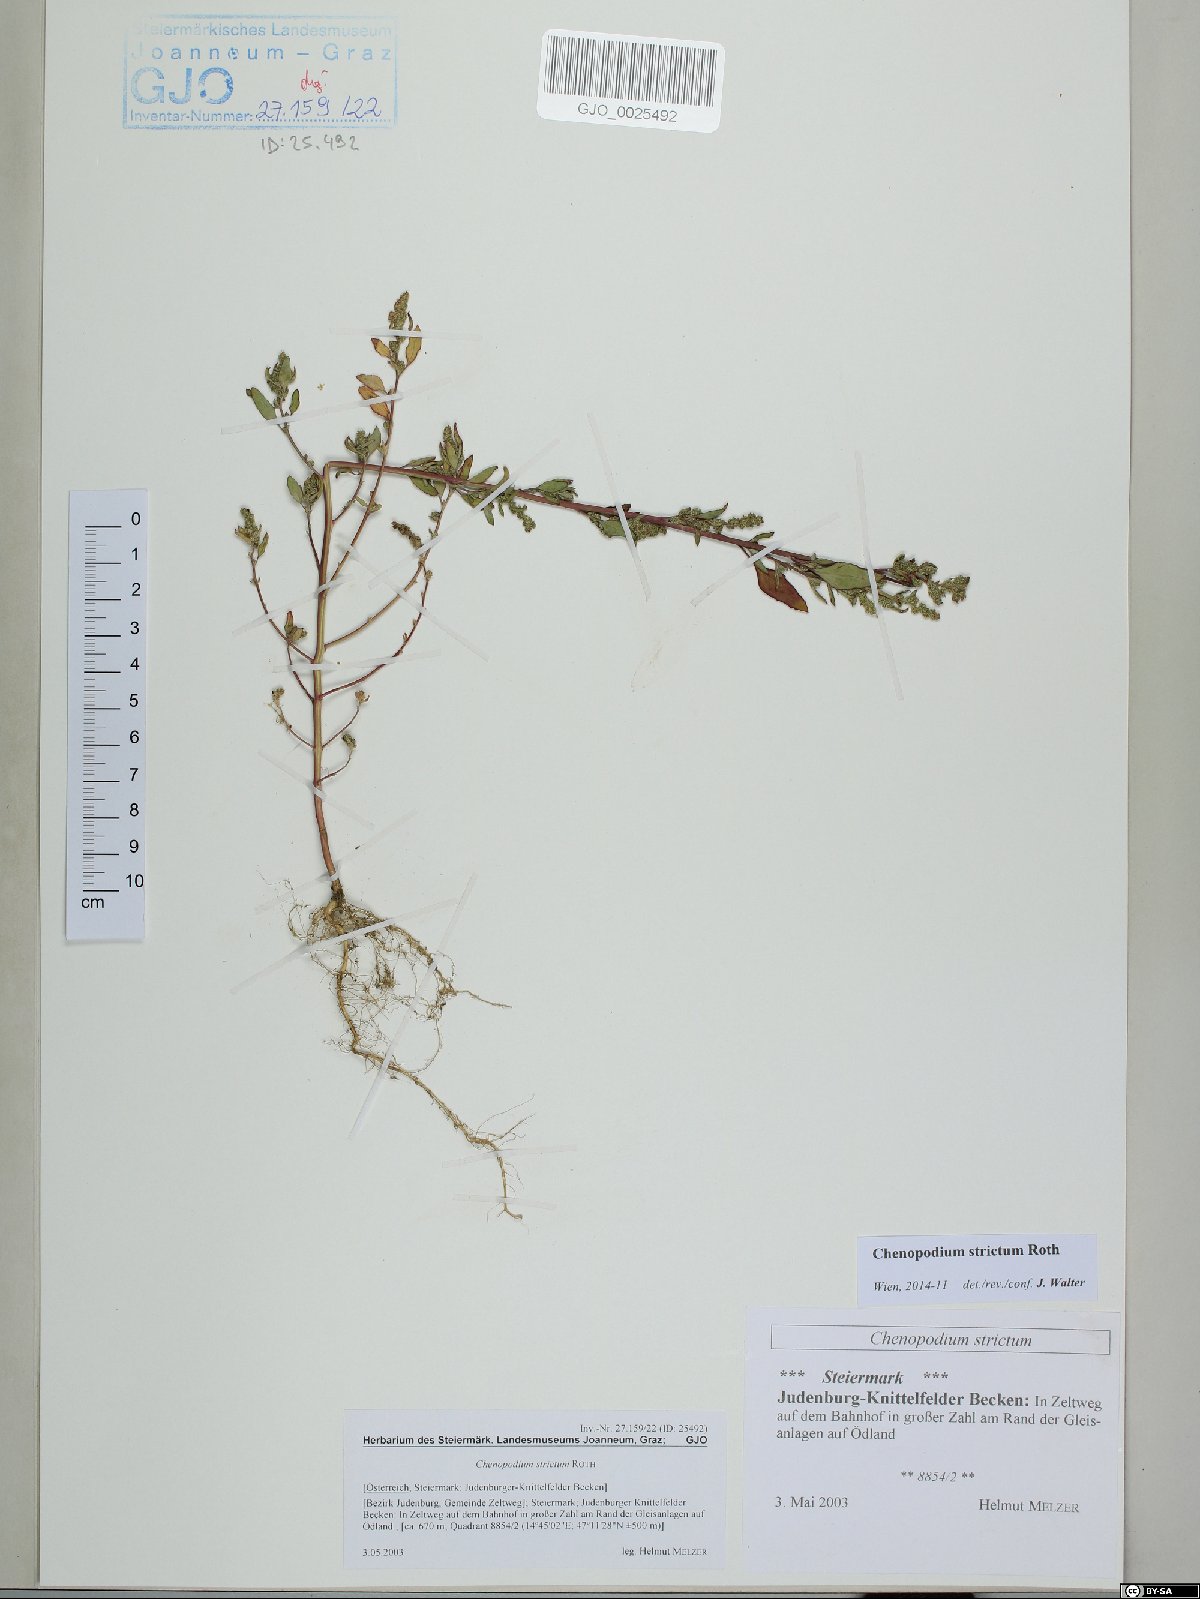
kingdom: Plantae
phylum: Tracheophyta
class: Magnoliopsida
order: Caryophyllales
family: Amaranthaceae
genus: Chenopodium
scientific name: Chenopodium album
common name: Fat-hen
